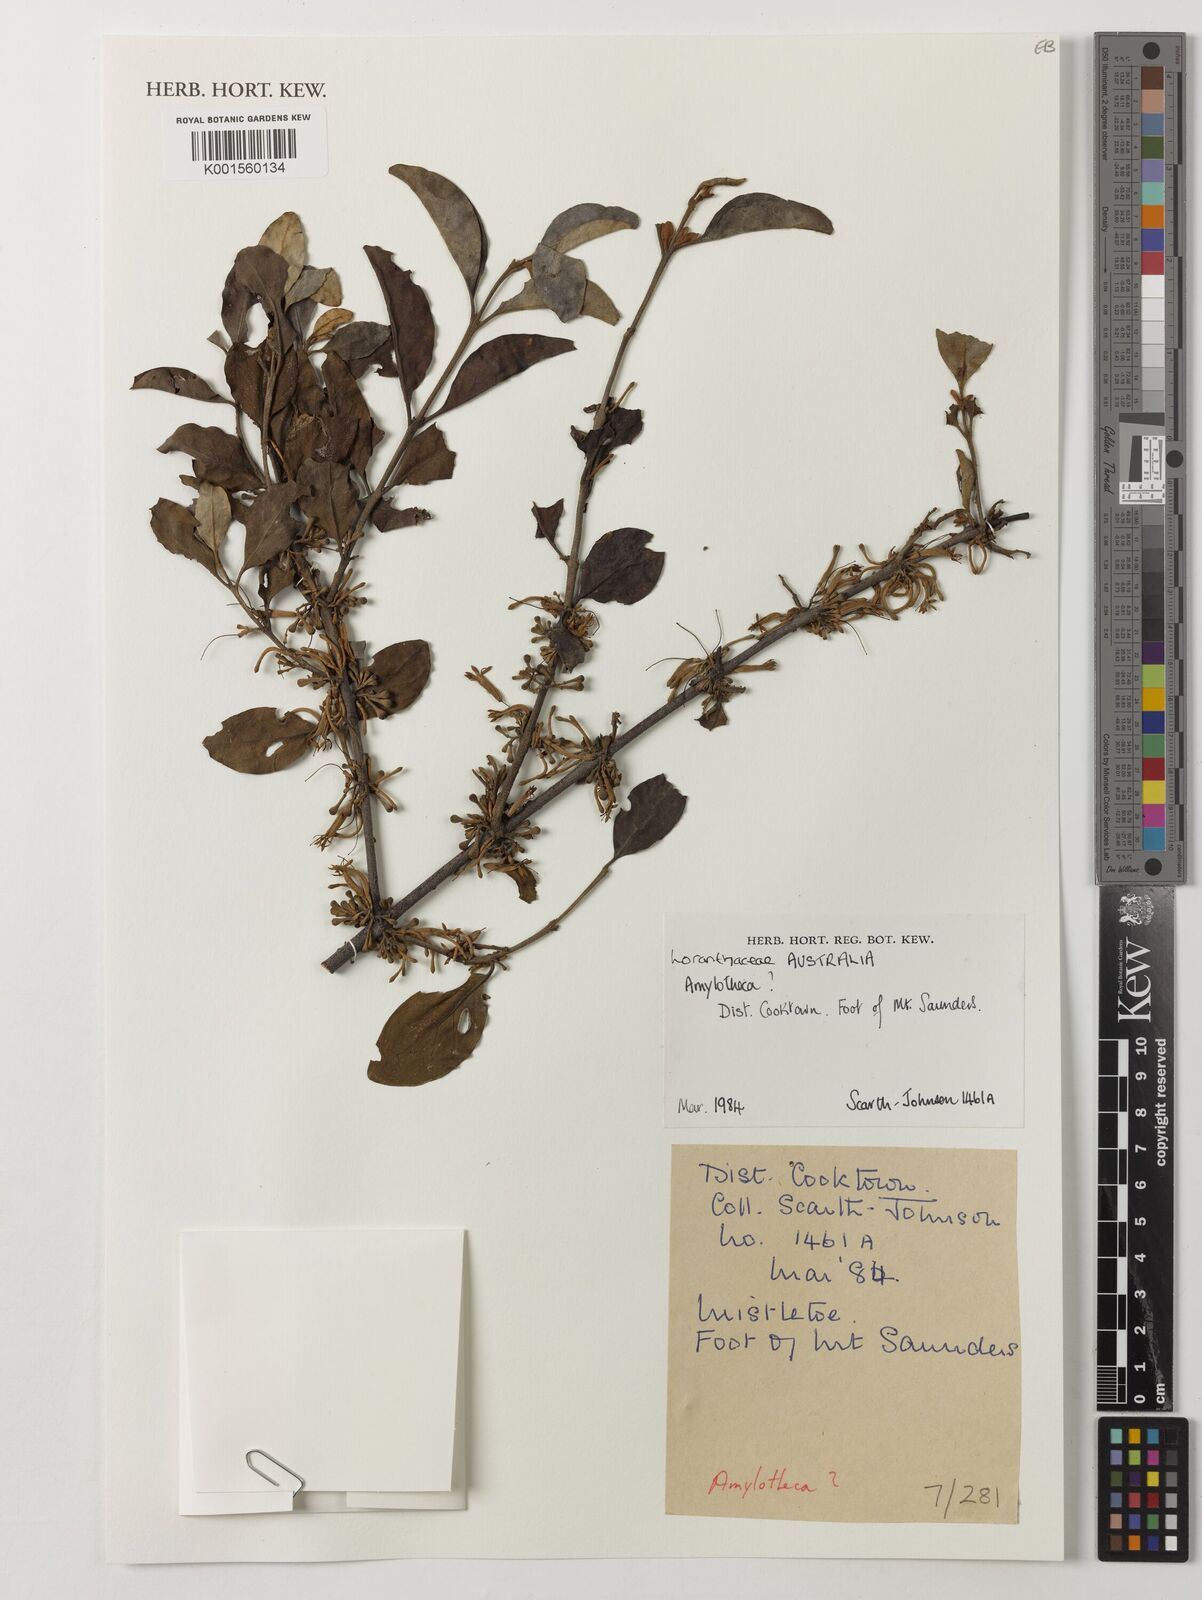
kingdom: Plantae
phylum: Tracheophyta
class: Magnoliopsida
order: Santalales
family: Loranthaceae
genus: Amylotheca
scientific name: Amylotheca
